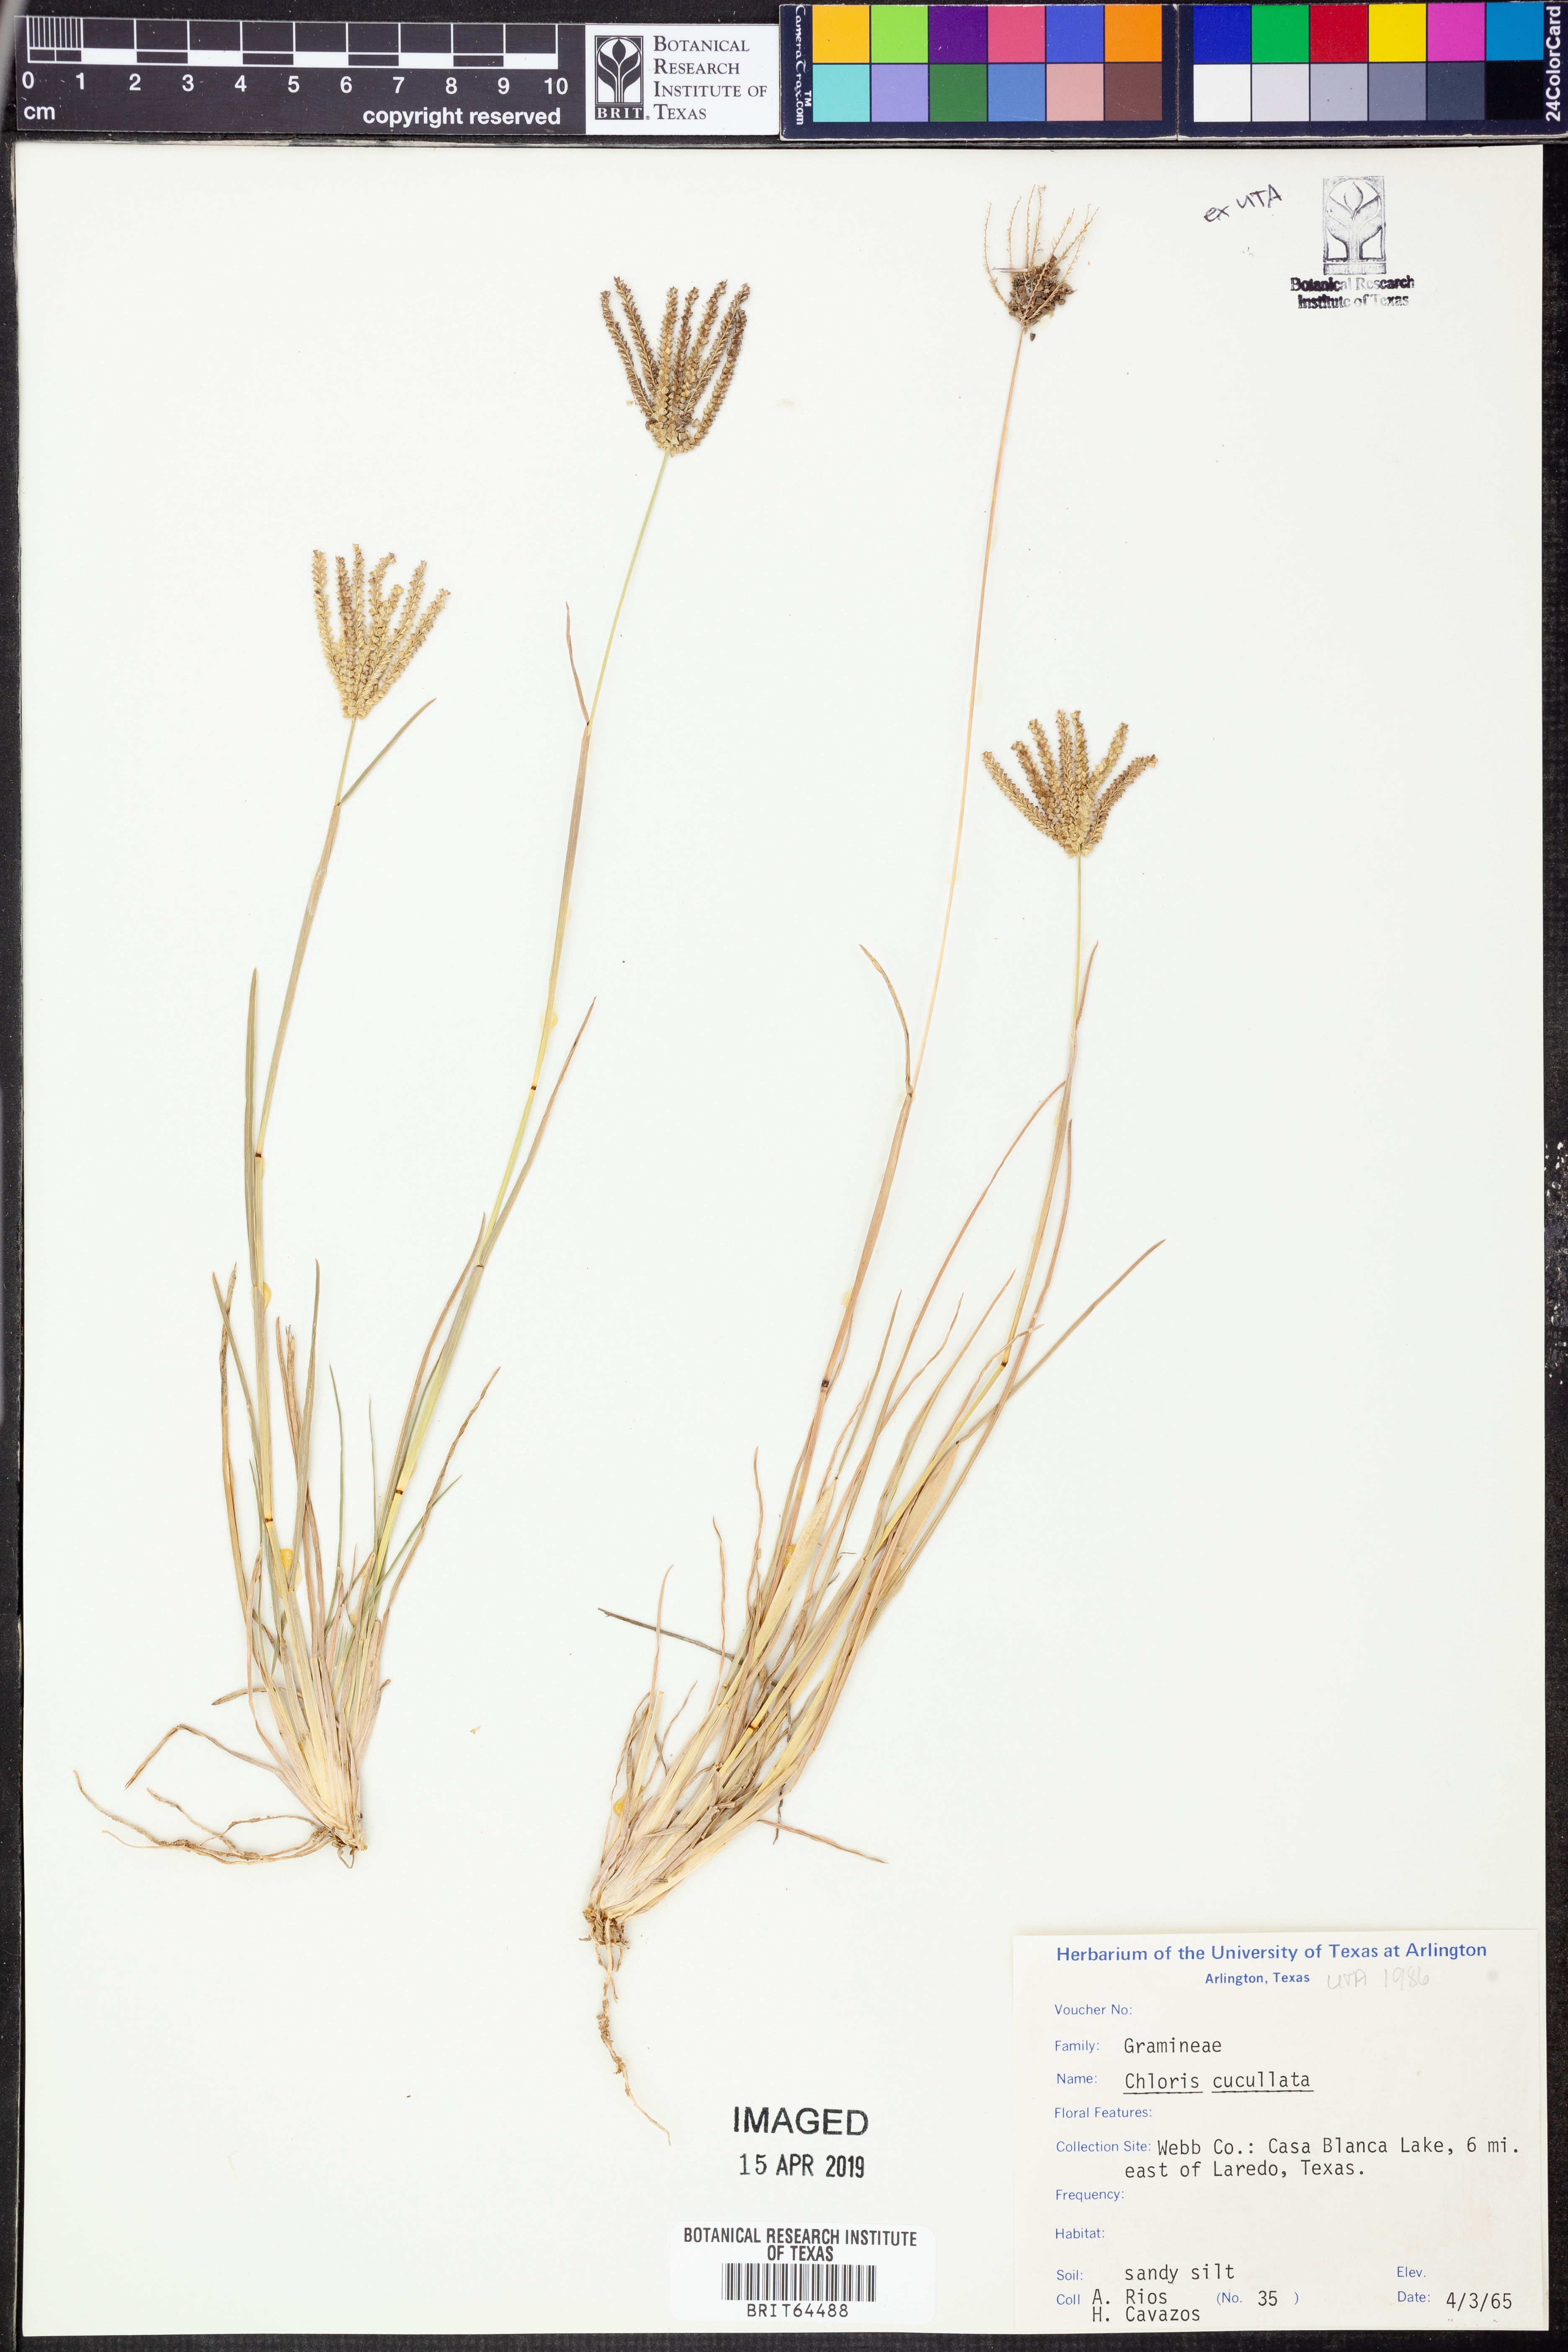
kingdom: Plantae
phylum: Tracheophyta
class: Liliopsida
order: Poales
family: Poaceae
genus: Chloris
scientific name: Chloris cucullata
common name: Hooded windmill grass
